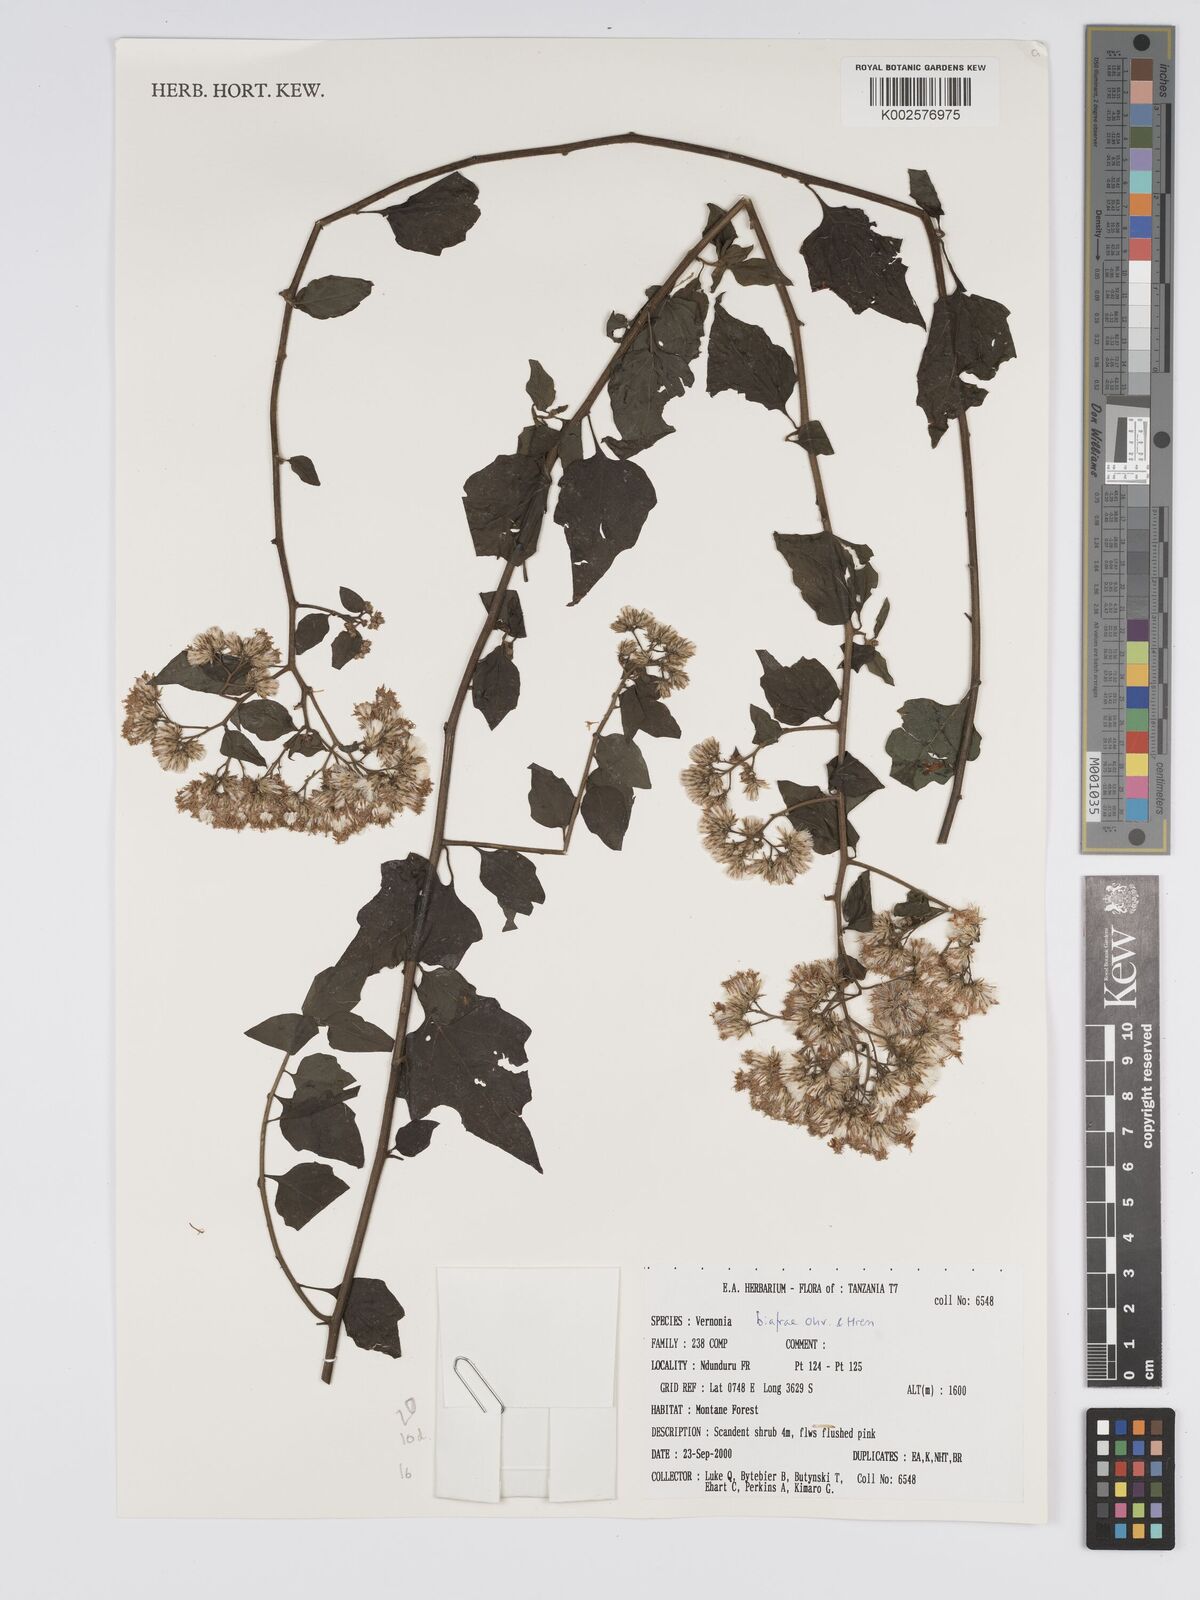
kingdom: Plantae
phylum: Tracheophyta
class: Magnoliopsida
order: Asterales
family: Asteraceae
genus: Distephanus
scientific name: Distephanus biafrae
